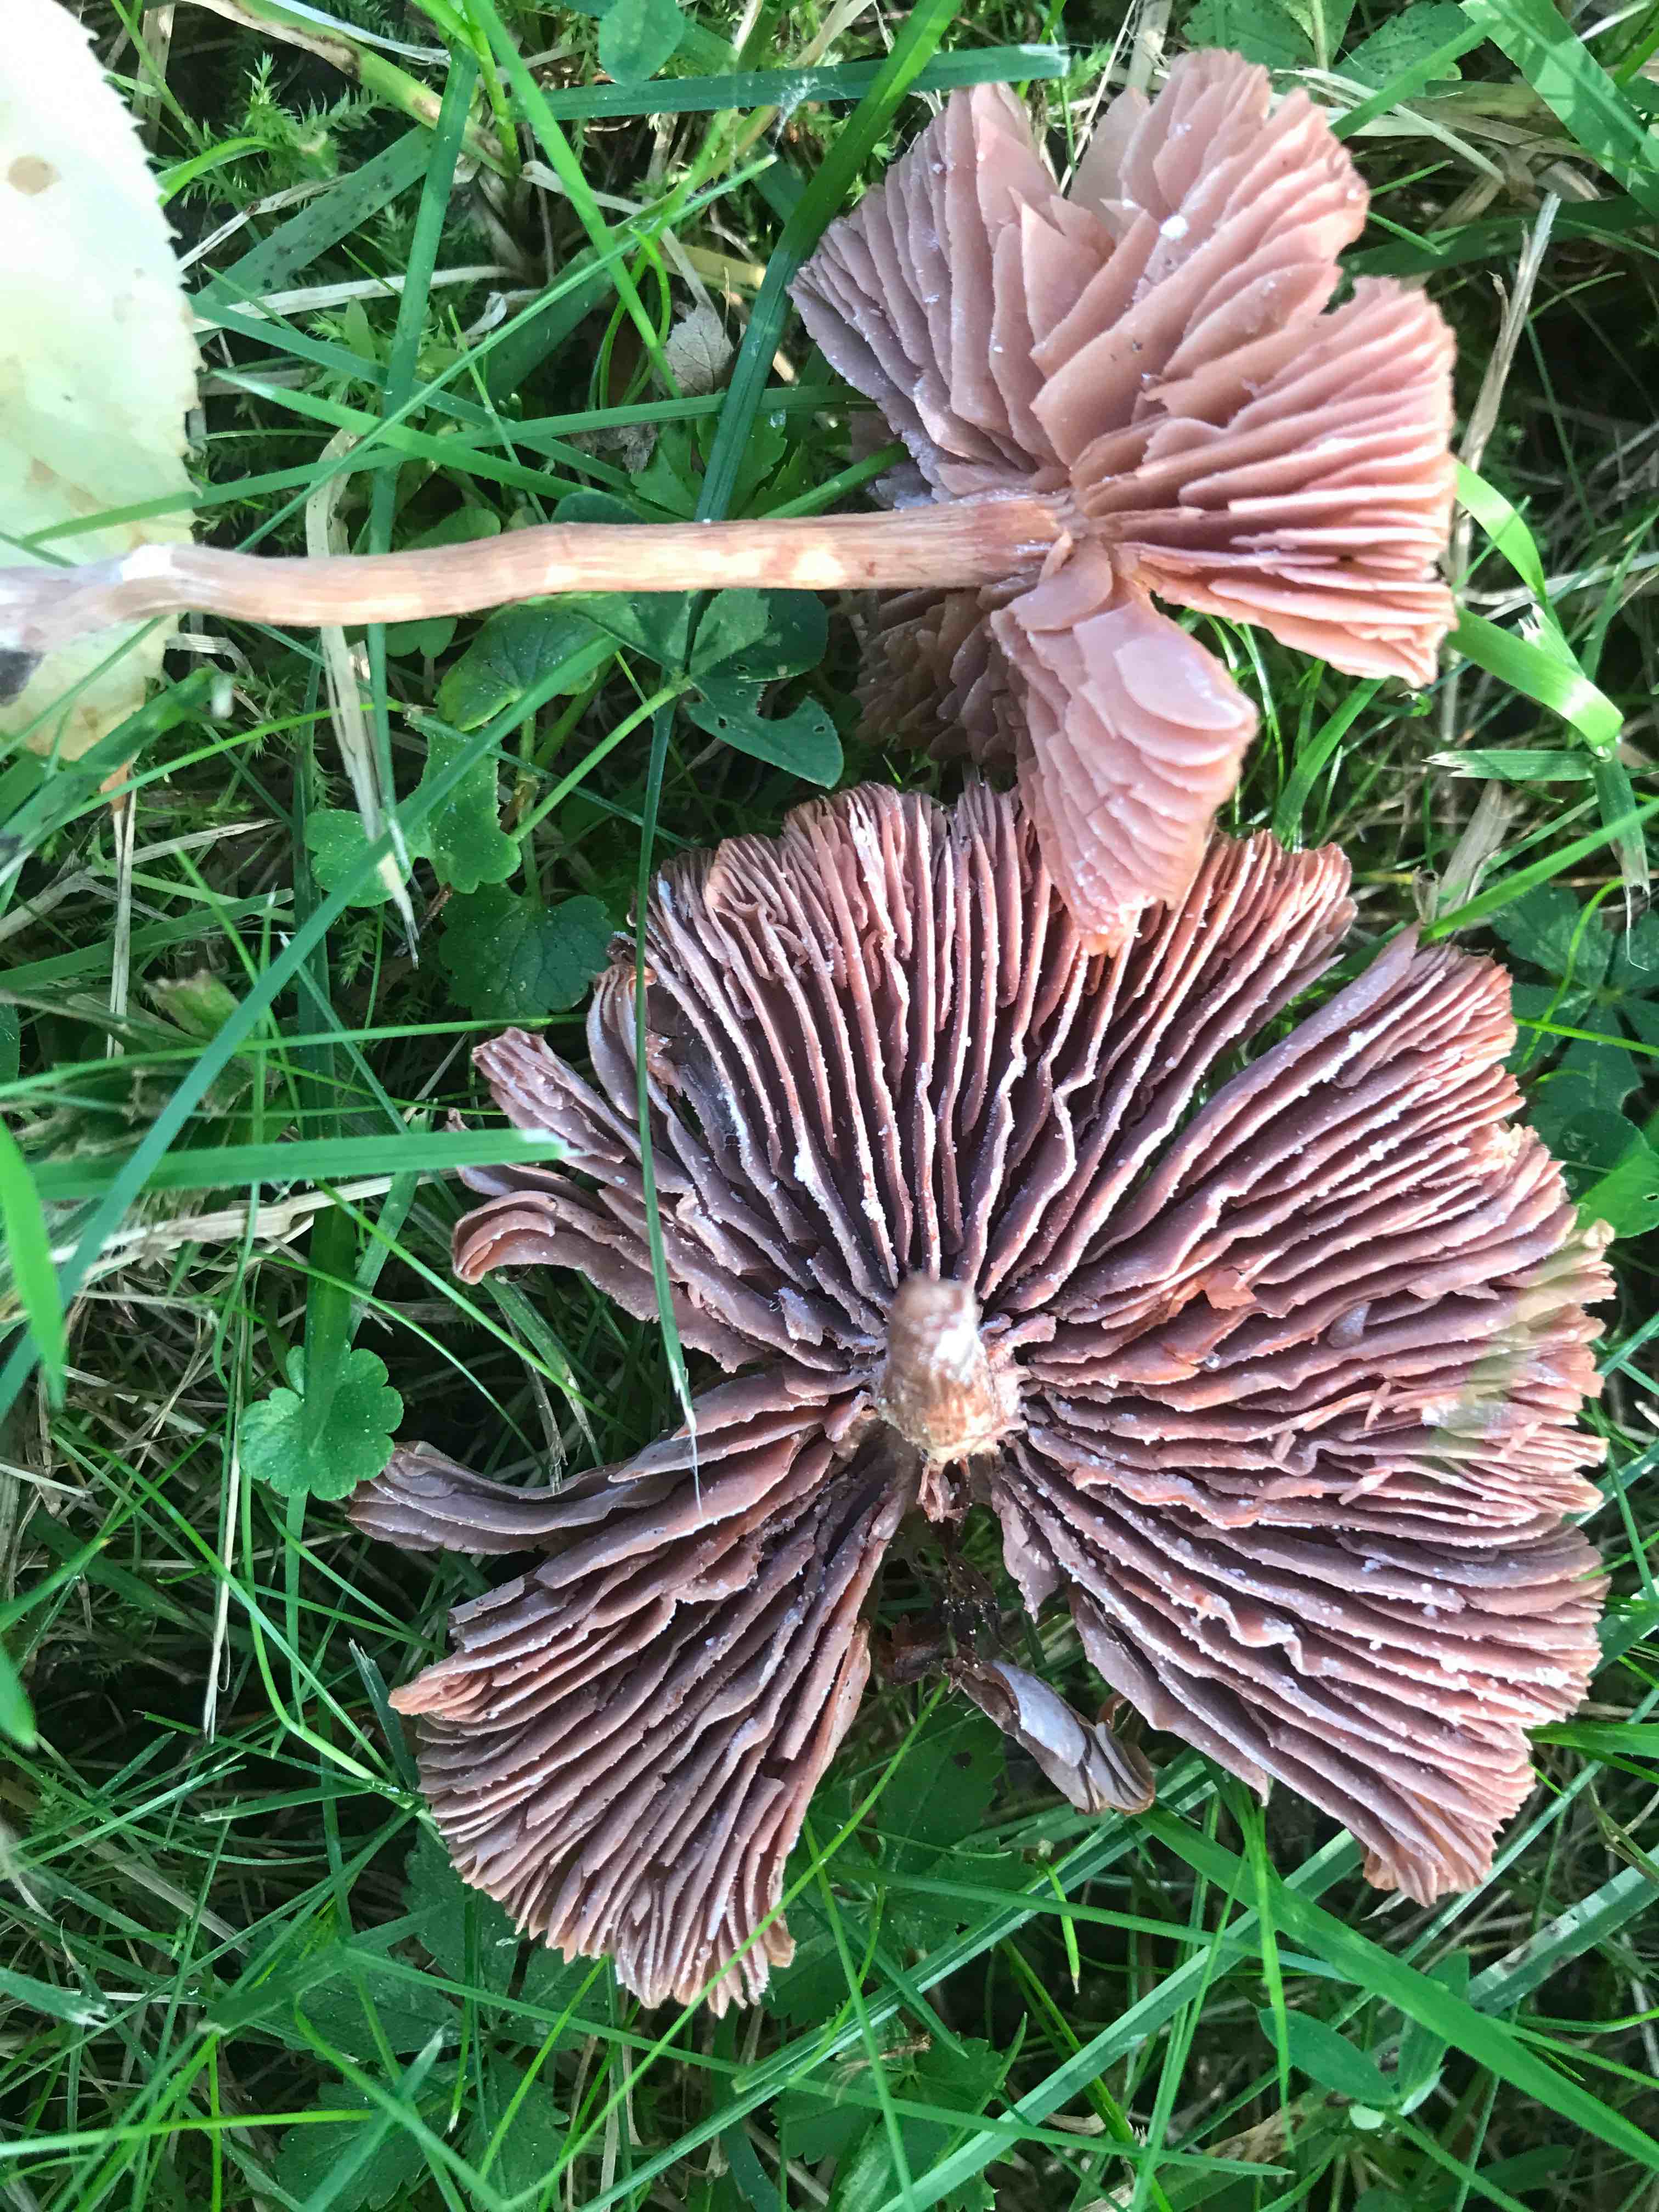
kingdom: Fungi
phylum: Basidiomycota
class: Agaricomycetes
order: Agaricales
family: Hydnangiaceae
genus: Laccaria
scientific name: Laccaria proxima
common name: stor ametysthat
